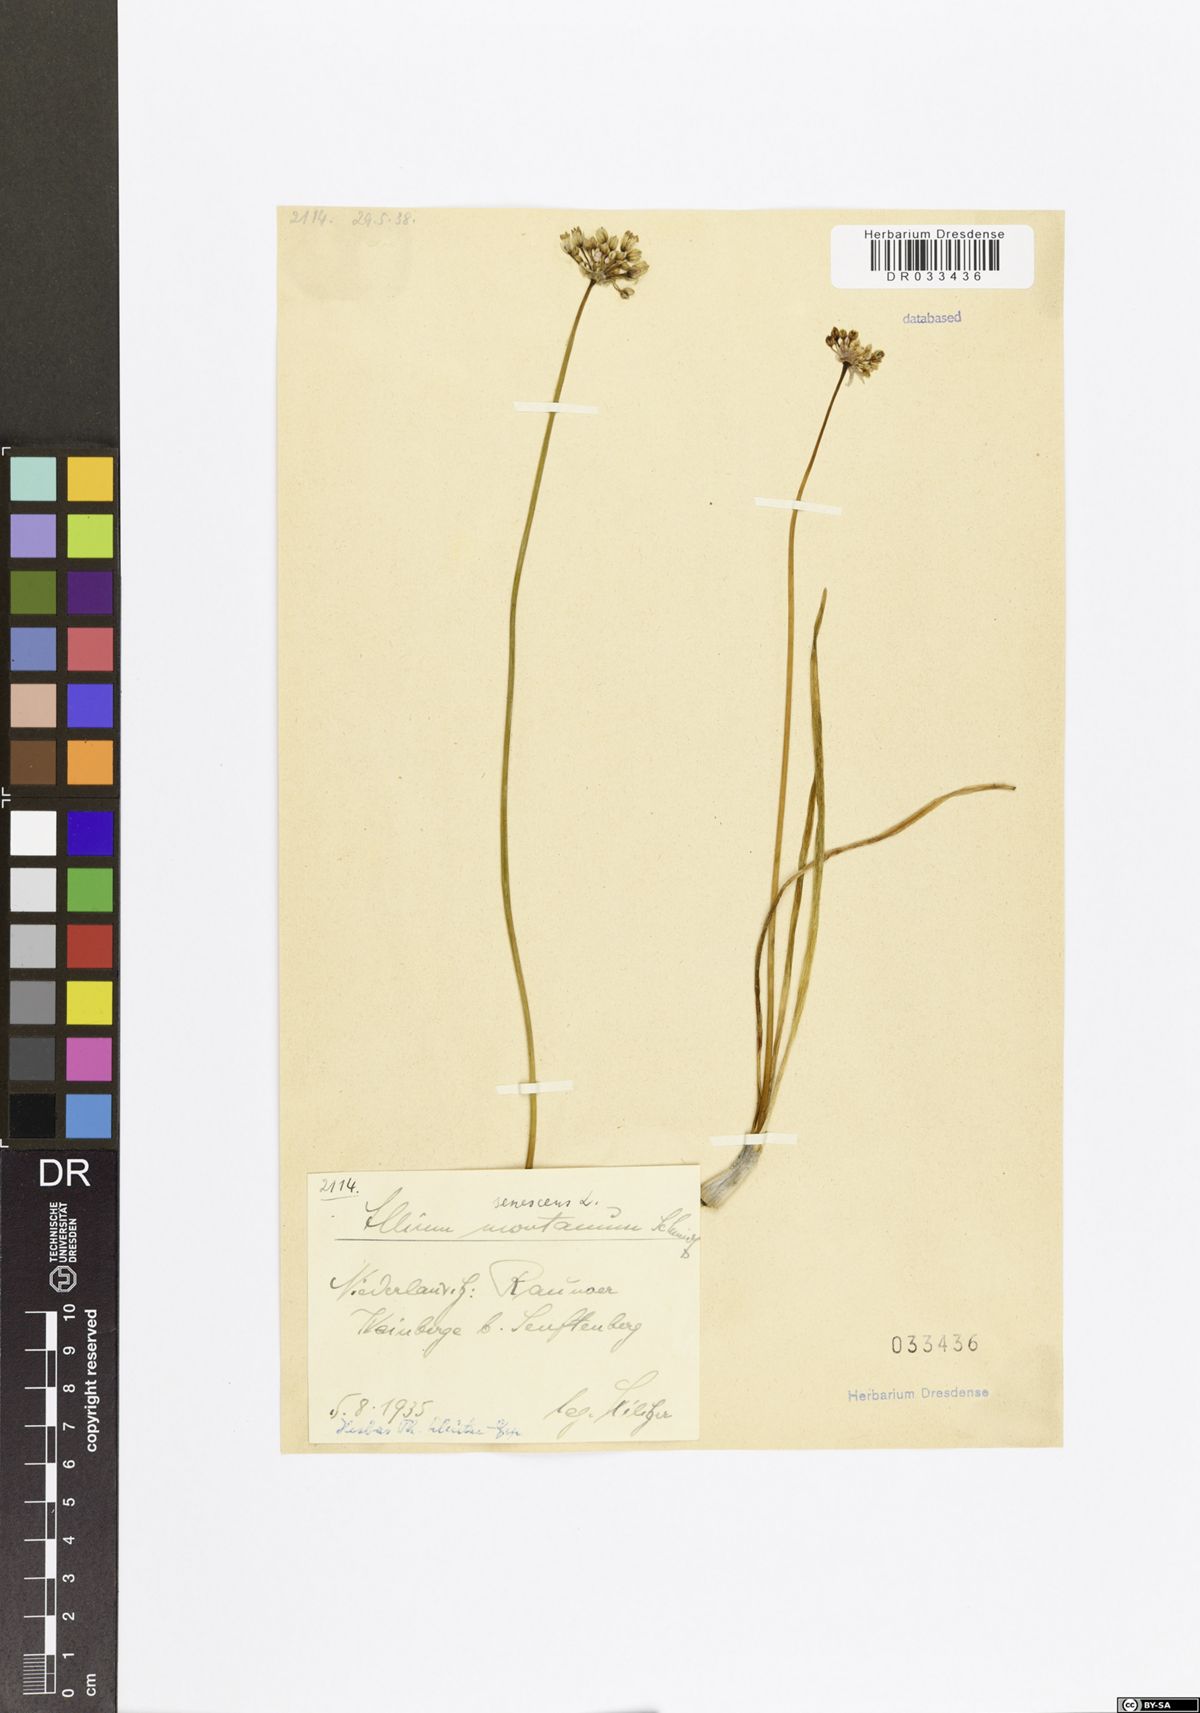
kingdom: Plantae
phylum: Tracheophyta
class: Liliopsida
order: Asparagales
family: Amaryllidaceae
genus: Allium
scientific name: Allium senescens
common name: German garlic
